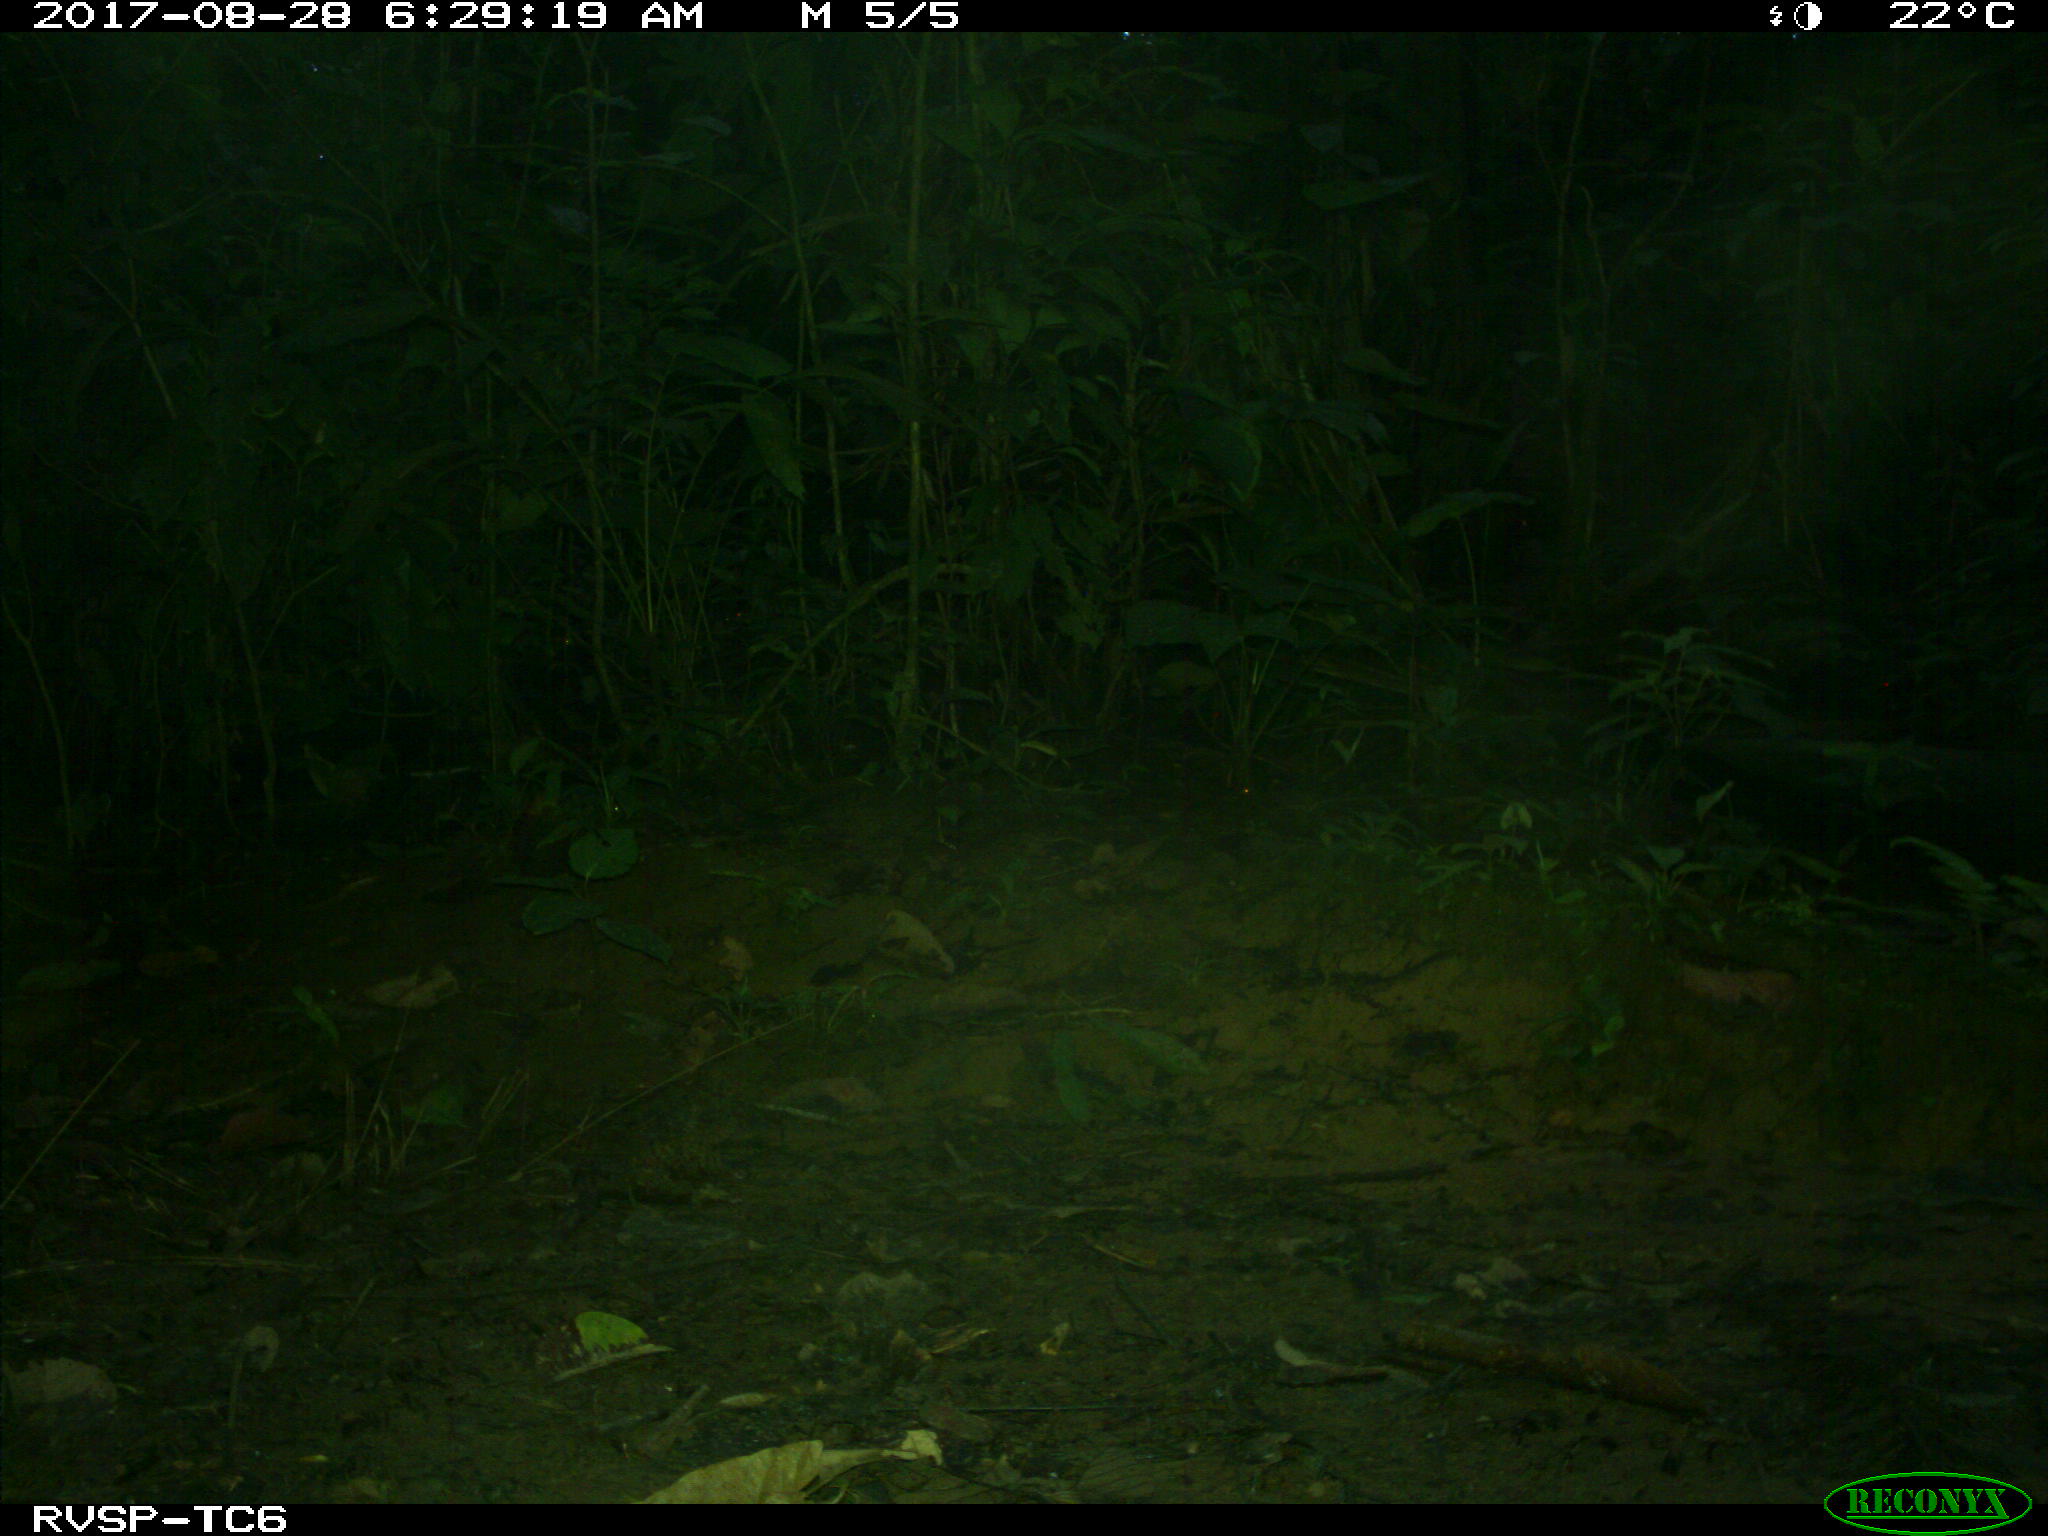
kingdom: Animalia
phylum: Chordata
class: Mammalia
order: Rodentia
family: Dasyproctidae
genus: Dasyprocta
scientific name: Dasyprocta punctata
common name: Central american agouti
